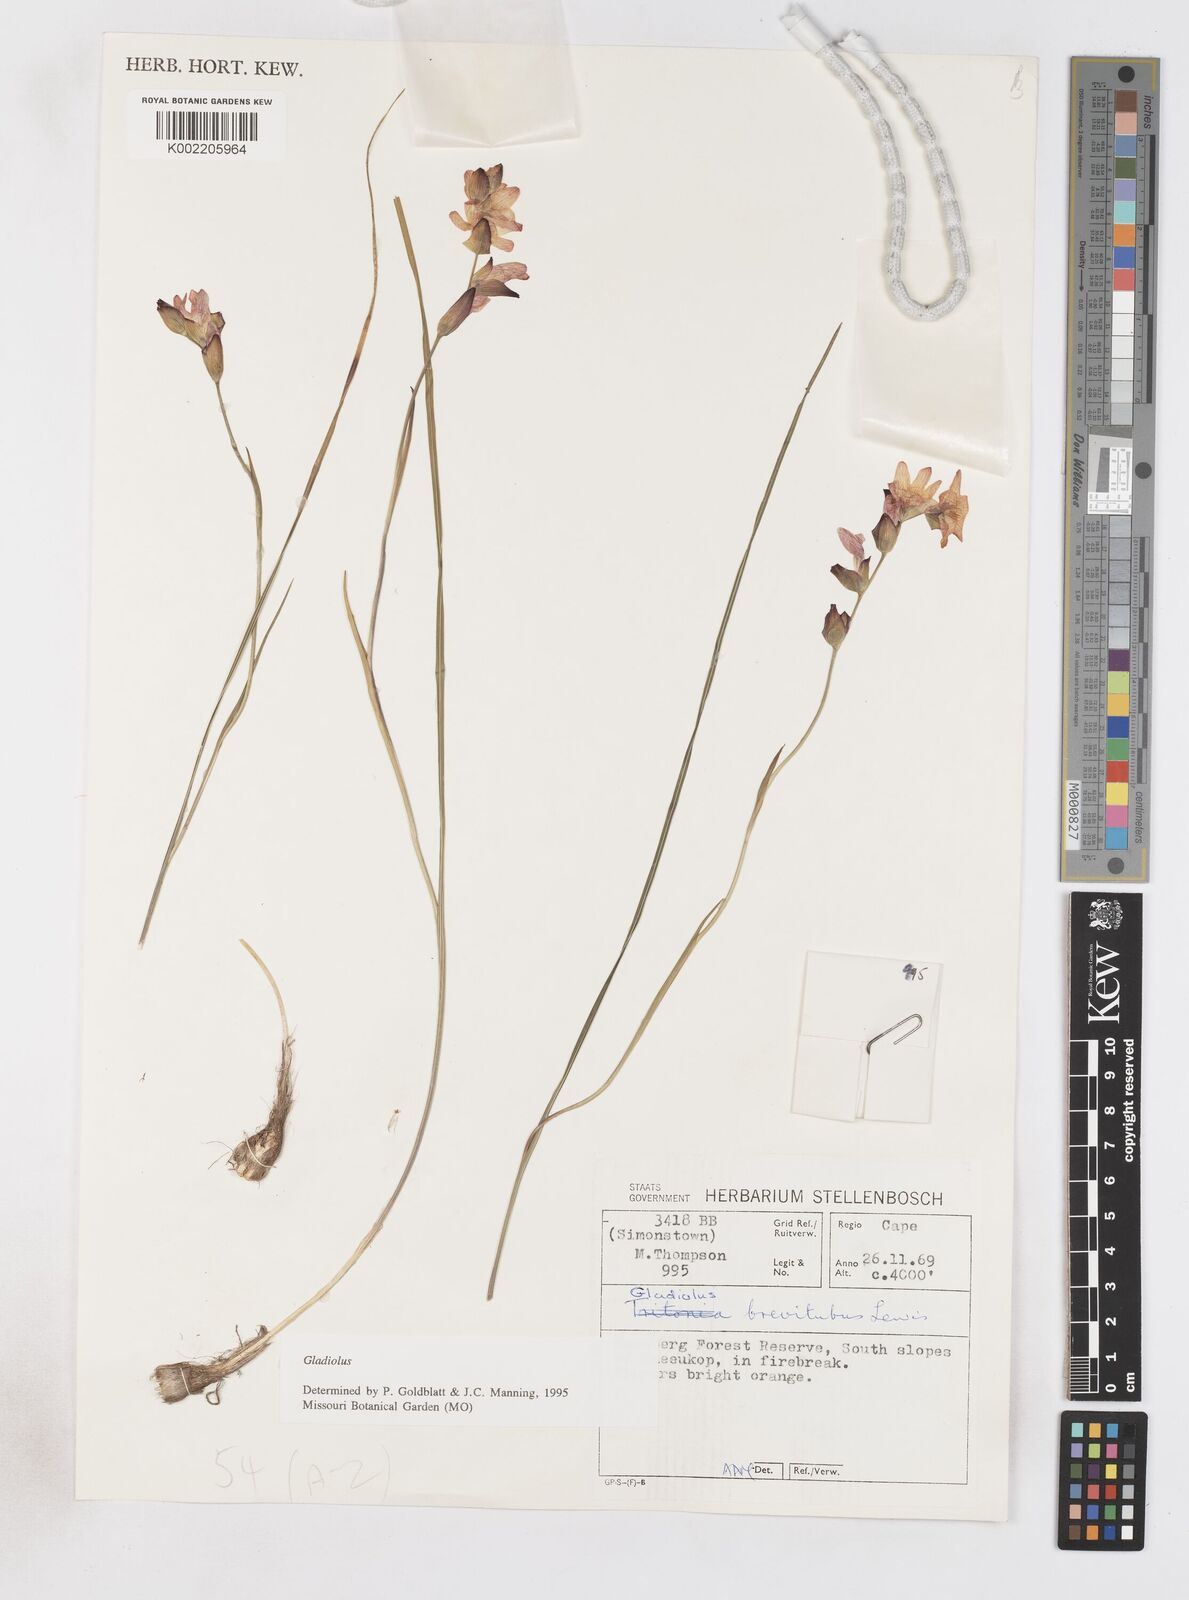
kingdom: Plantae
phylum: Tracheophyta
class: Liliopsida
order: Asparagales
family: Iridaceae
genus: Gladiolus
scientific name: Gladiolus brevitubus
